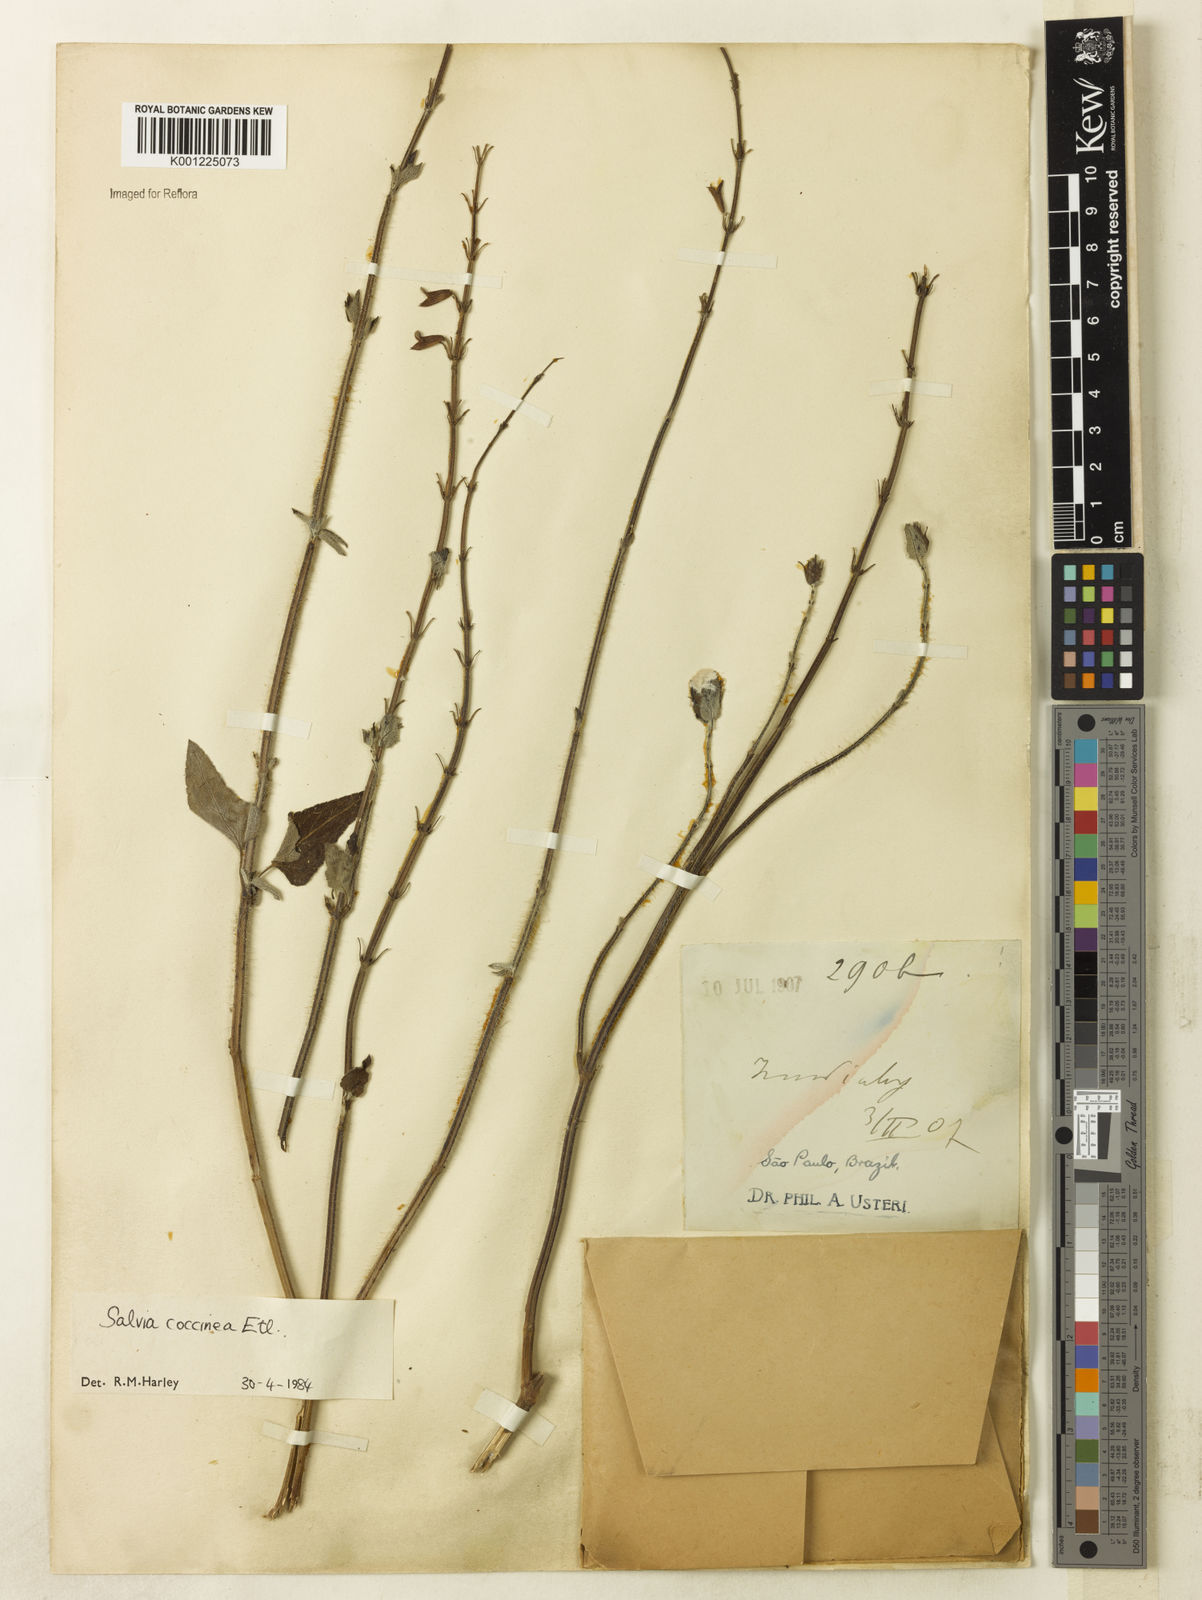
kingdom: Plantae
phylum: Tracheophyta
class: Magnoliopsida
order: Lamiales
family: Lamiaceae
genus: Salvia
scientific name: Salvia coccinea
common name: Blood sage
